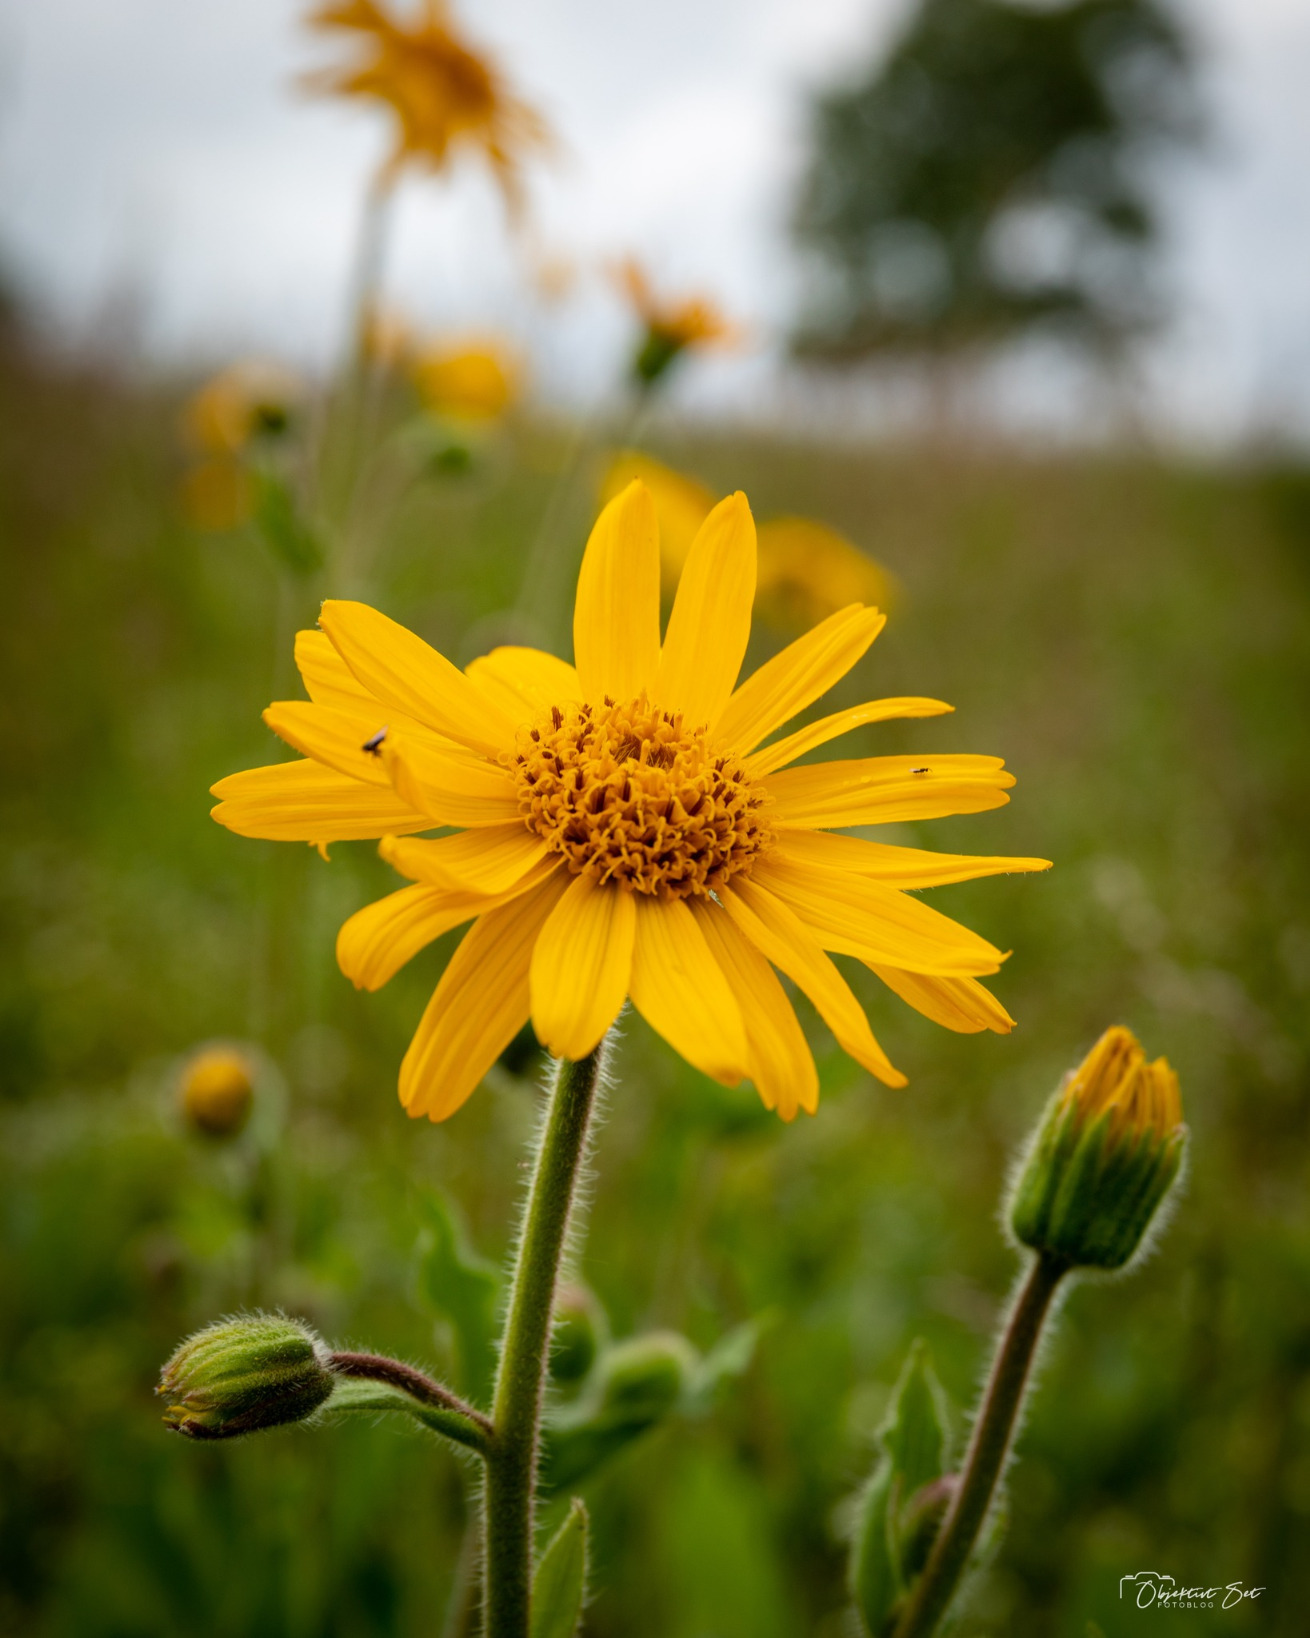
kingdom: Plantae
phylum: Tracheophyta
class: Magnoliopsida
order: Asterales
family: Asteraceae
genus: Arnica
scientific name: Arnica montana
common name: Guldblomme
